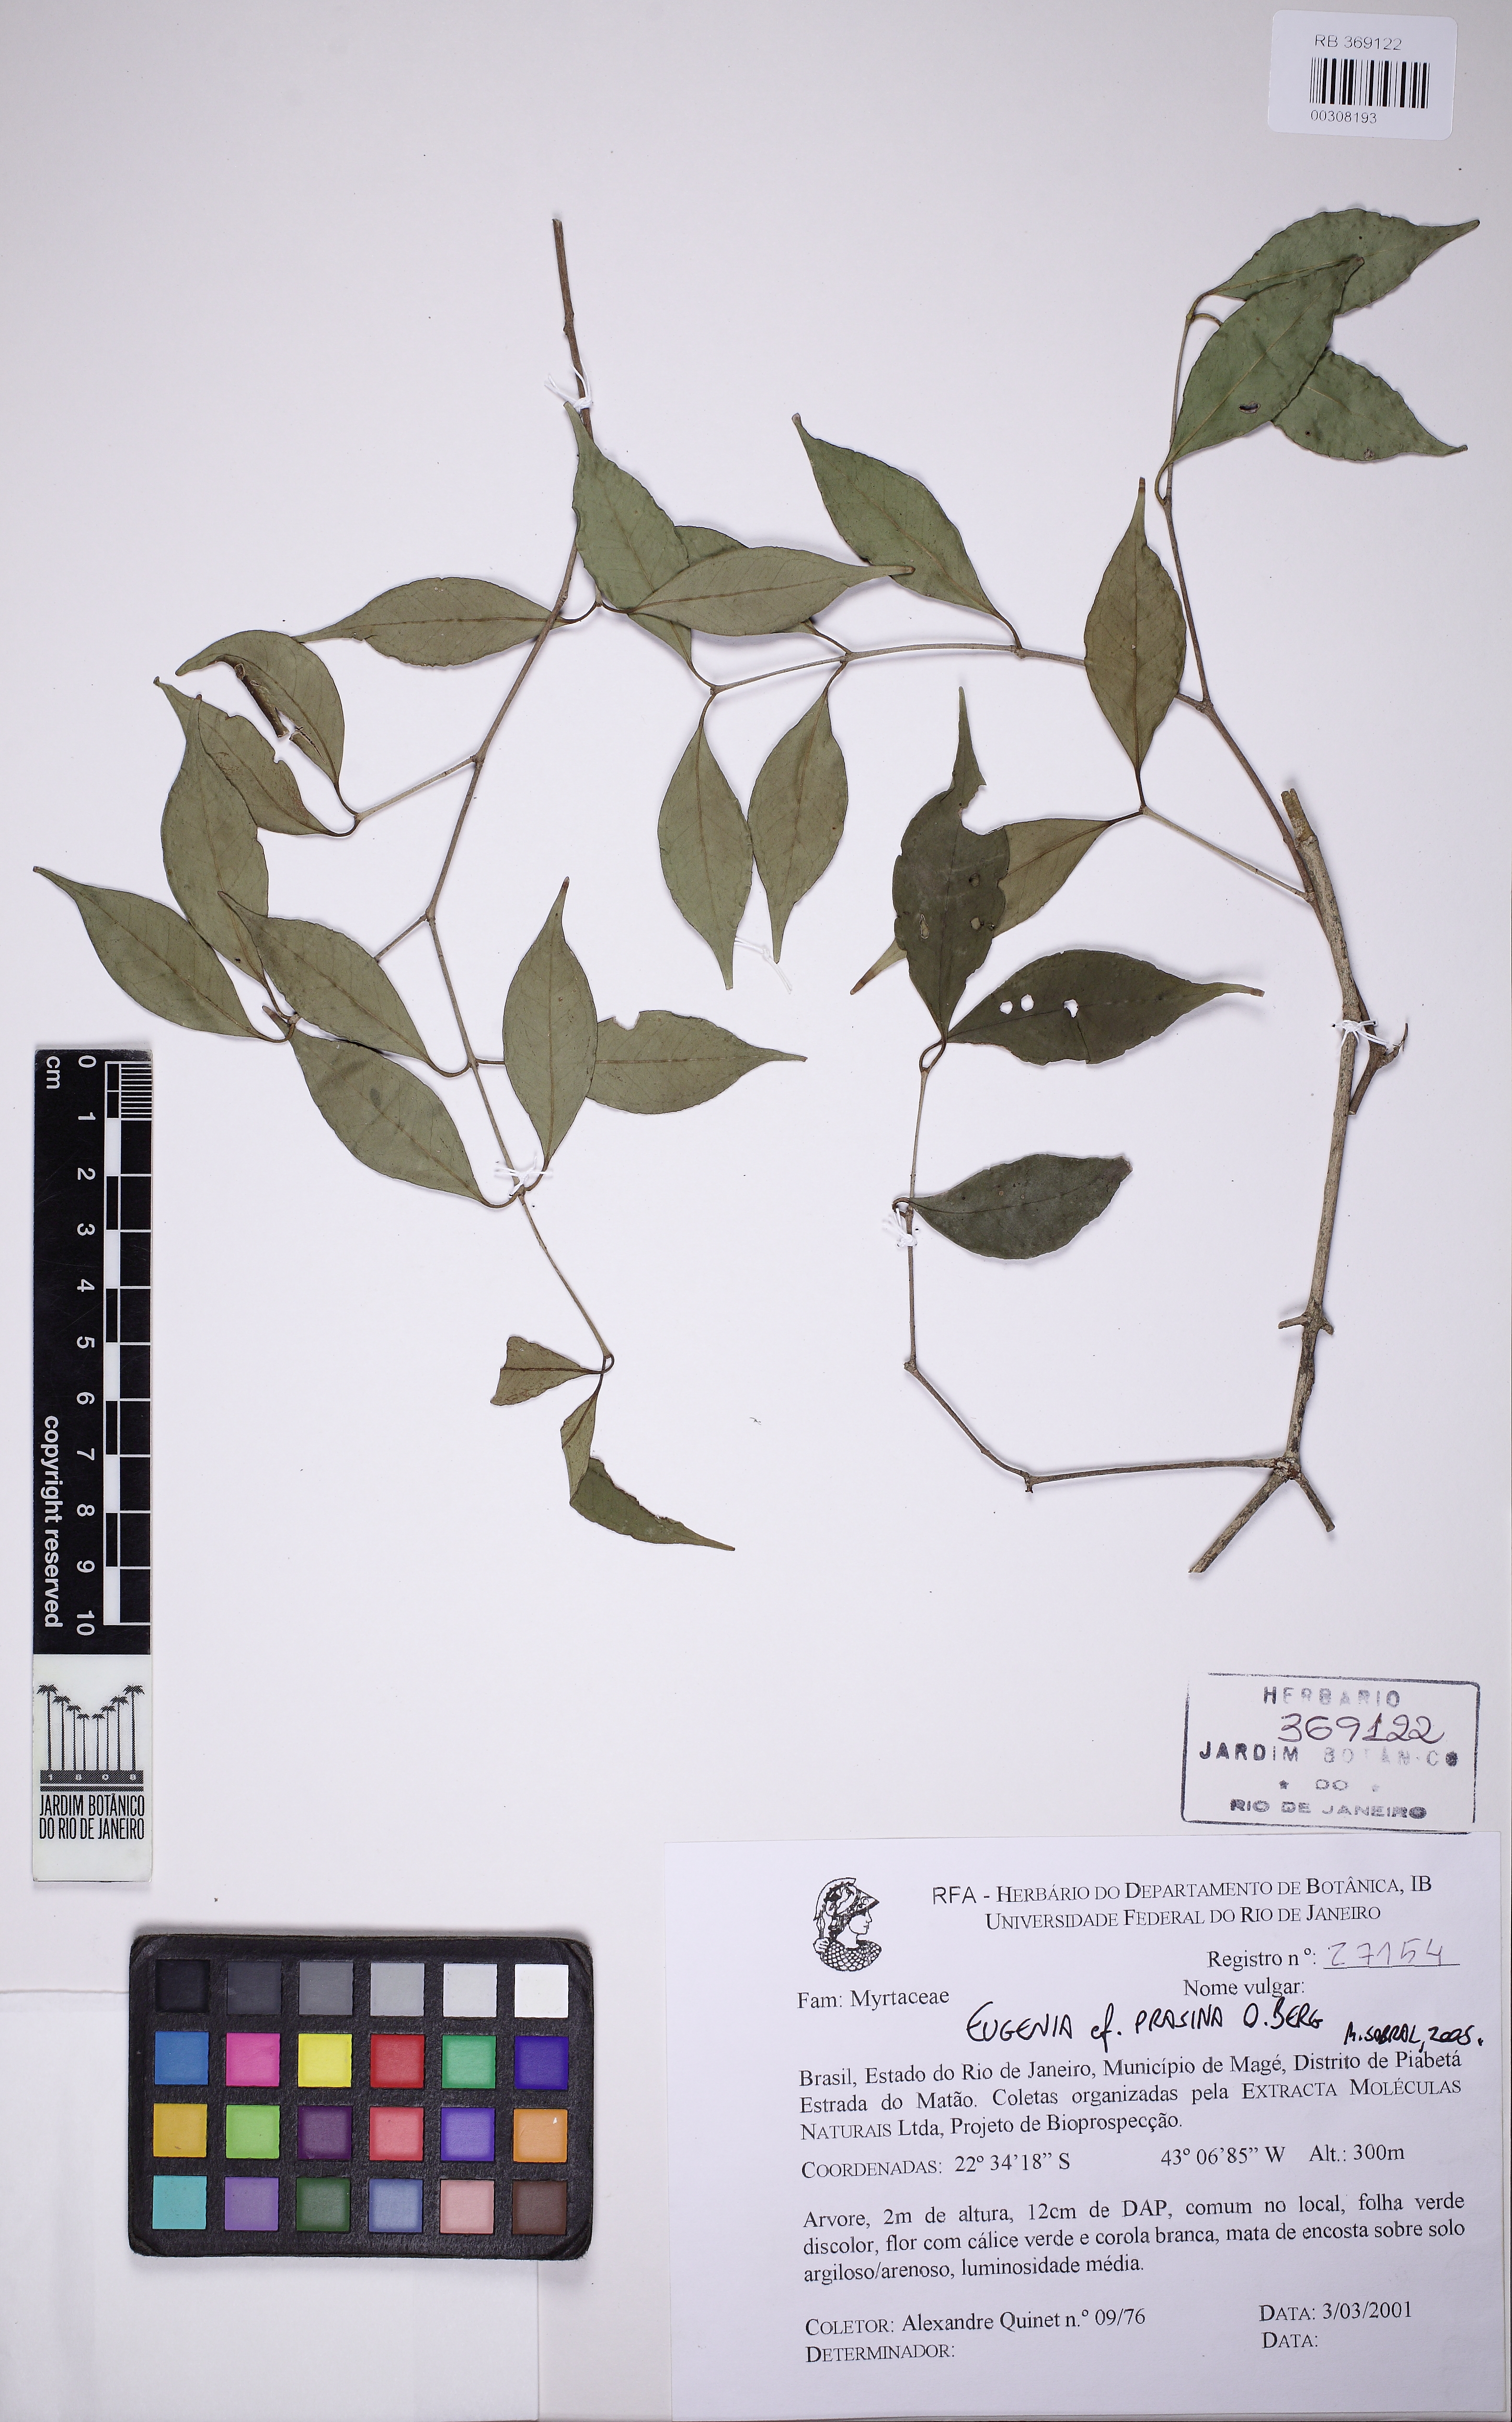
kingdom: Plantae
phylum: Tracheophyta
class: Magnoliopsida
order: Myrtales
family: Myrtaceae
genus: Eugenia
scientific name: Eugenia prasina
